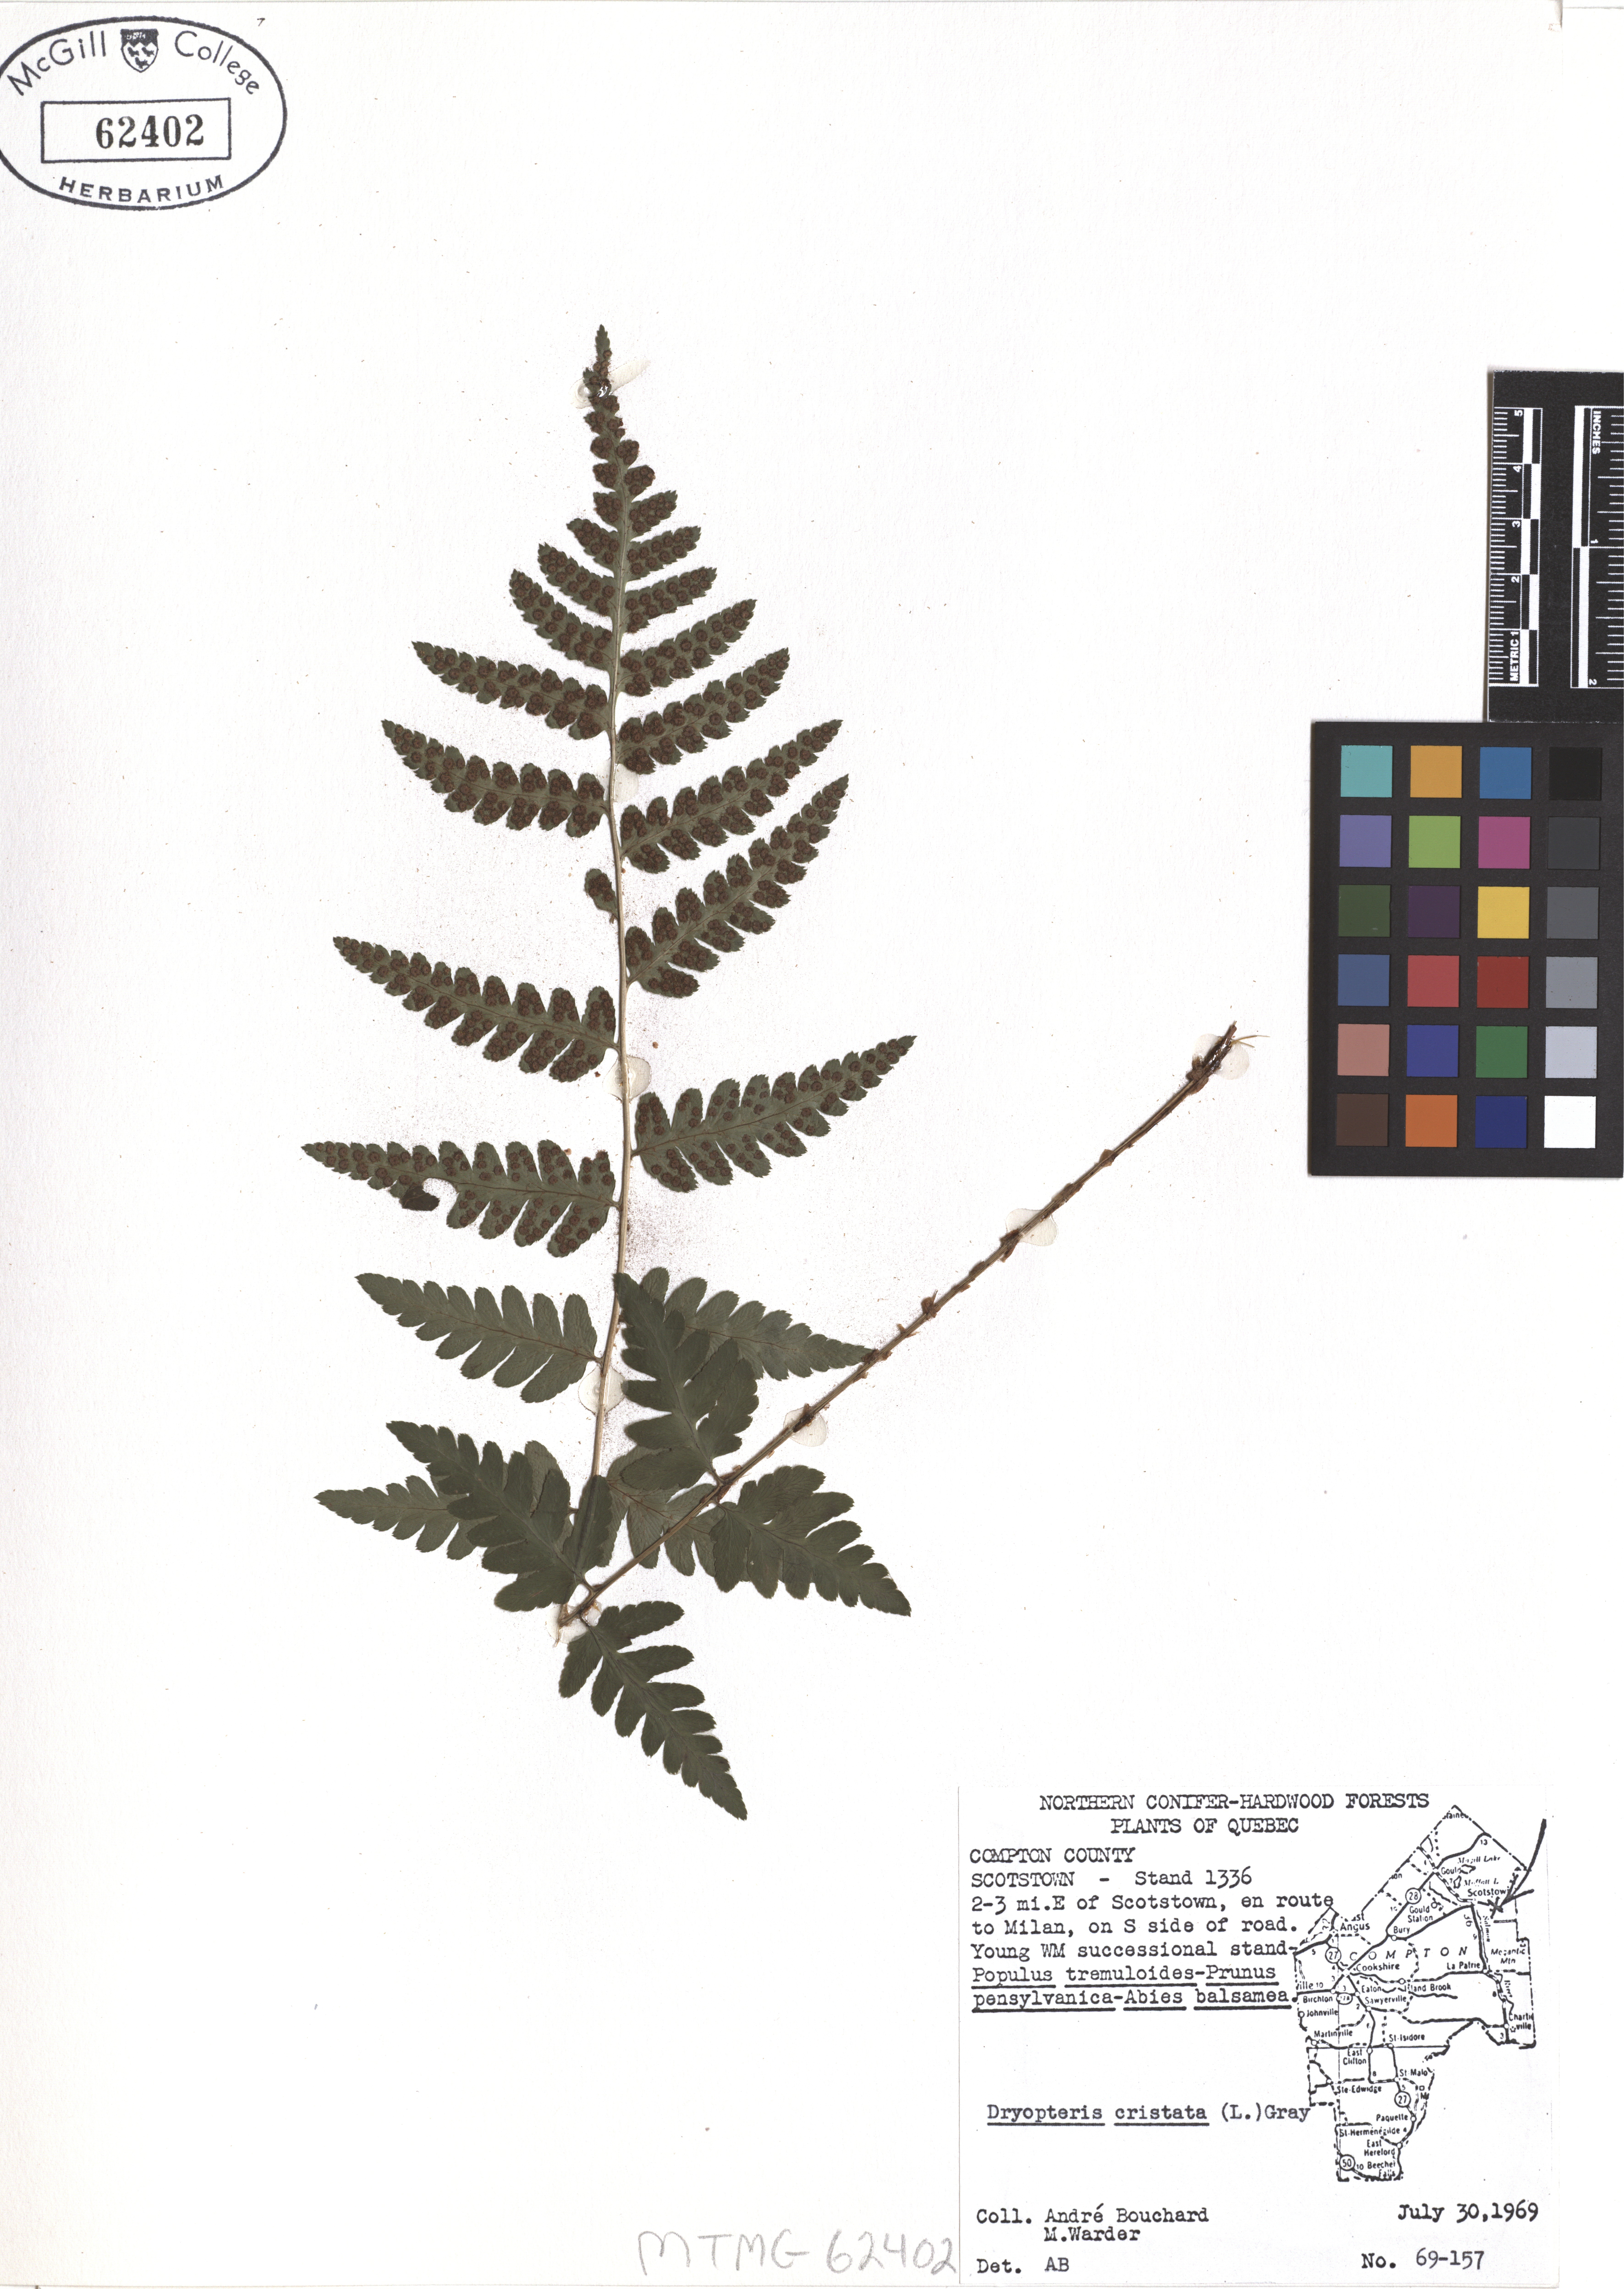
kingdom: Plantae
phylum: Tracheophyta
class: Polypodiopsida
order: Polypodiales
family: Dryopteridaceae
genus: Dryopteris
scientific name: Dryopteris cristata
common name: Crested wood fern
